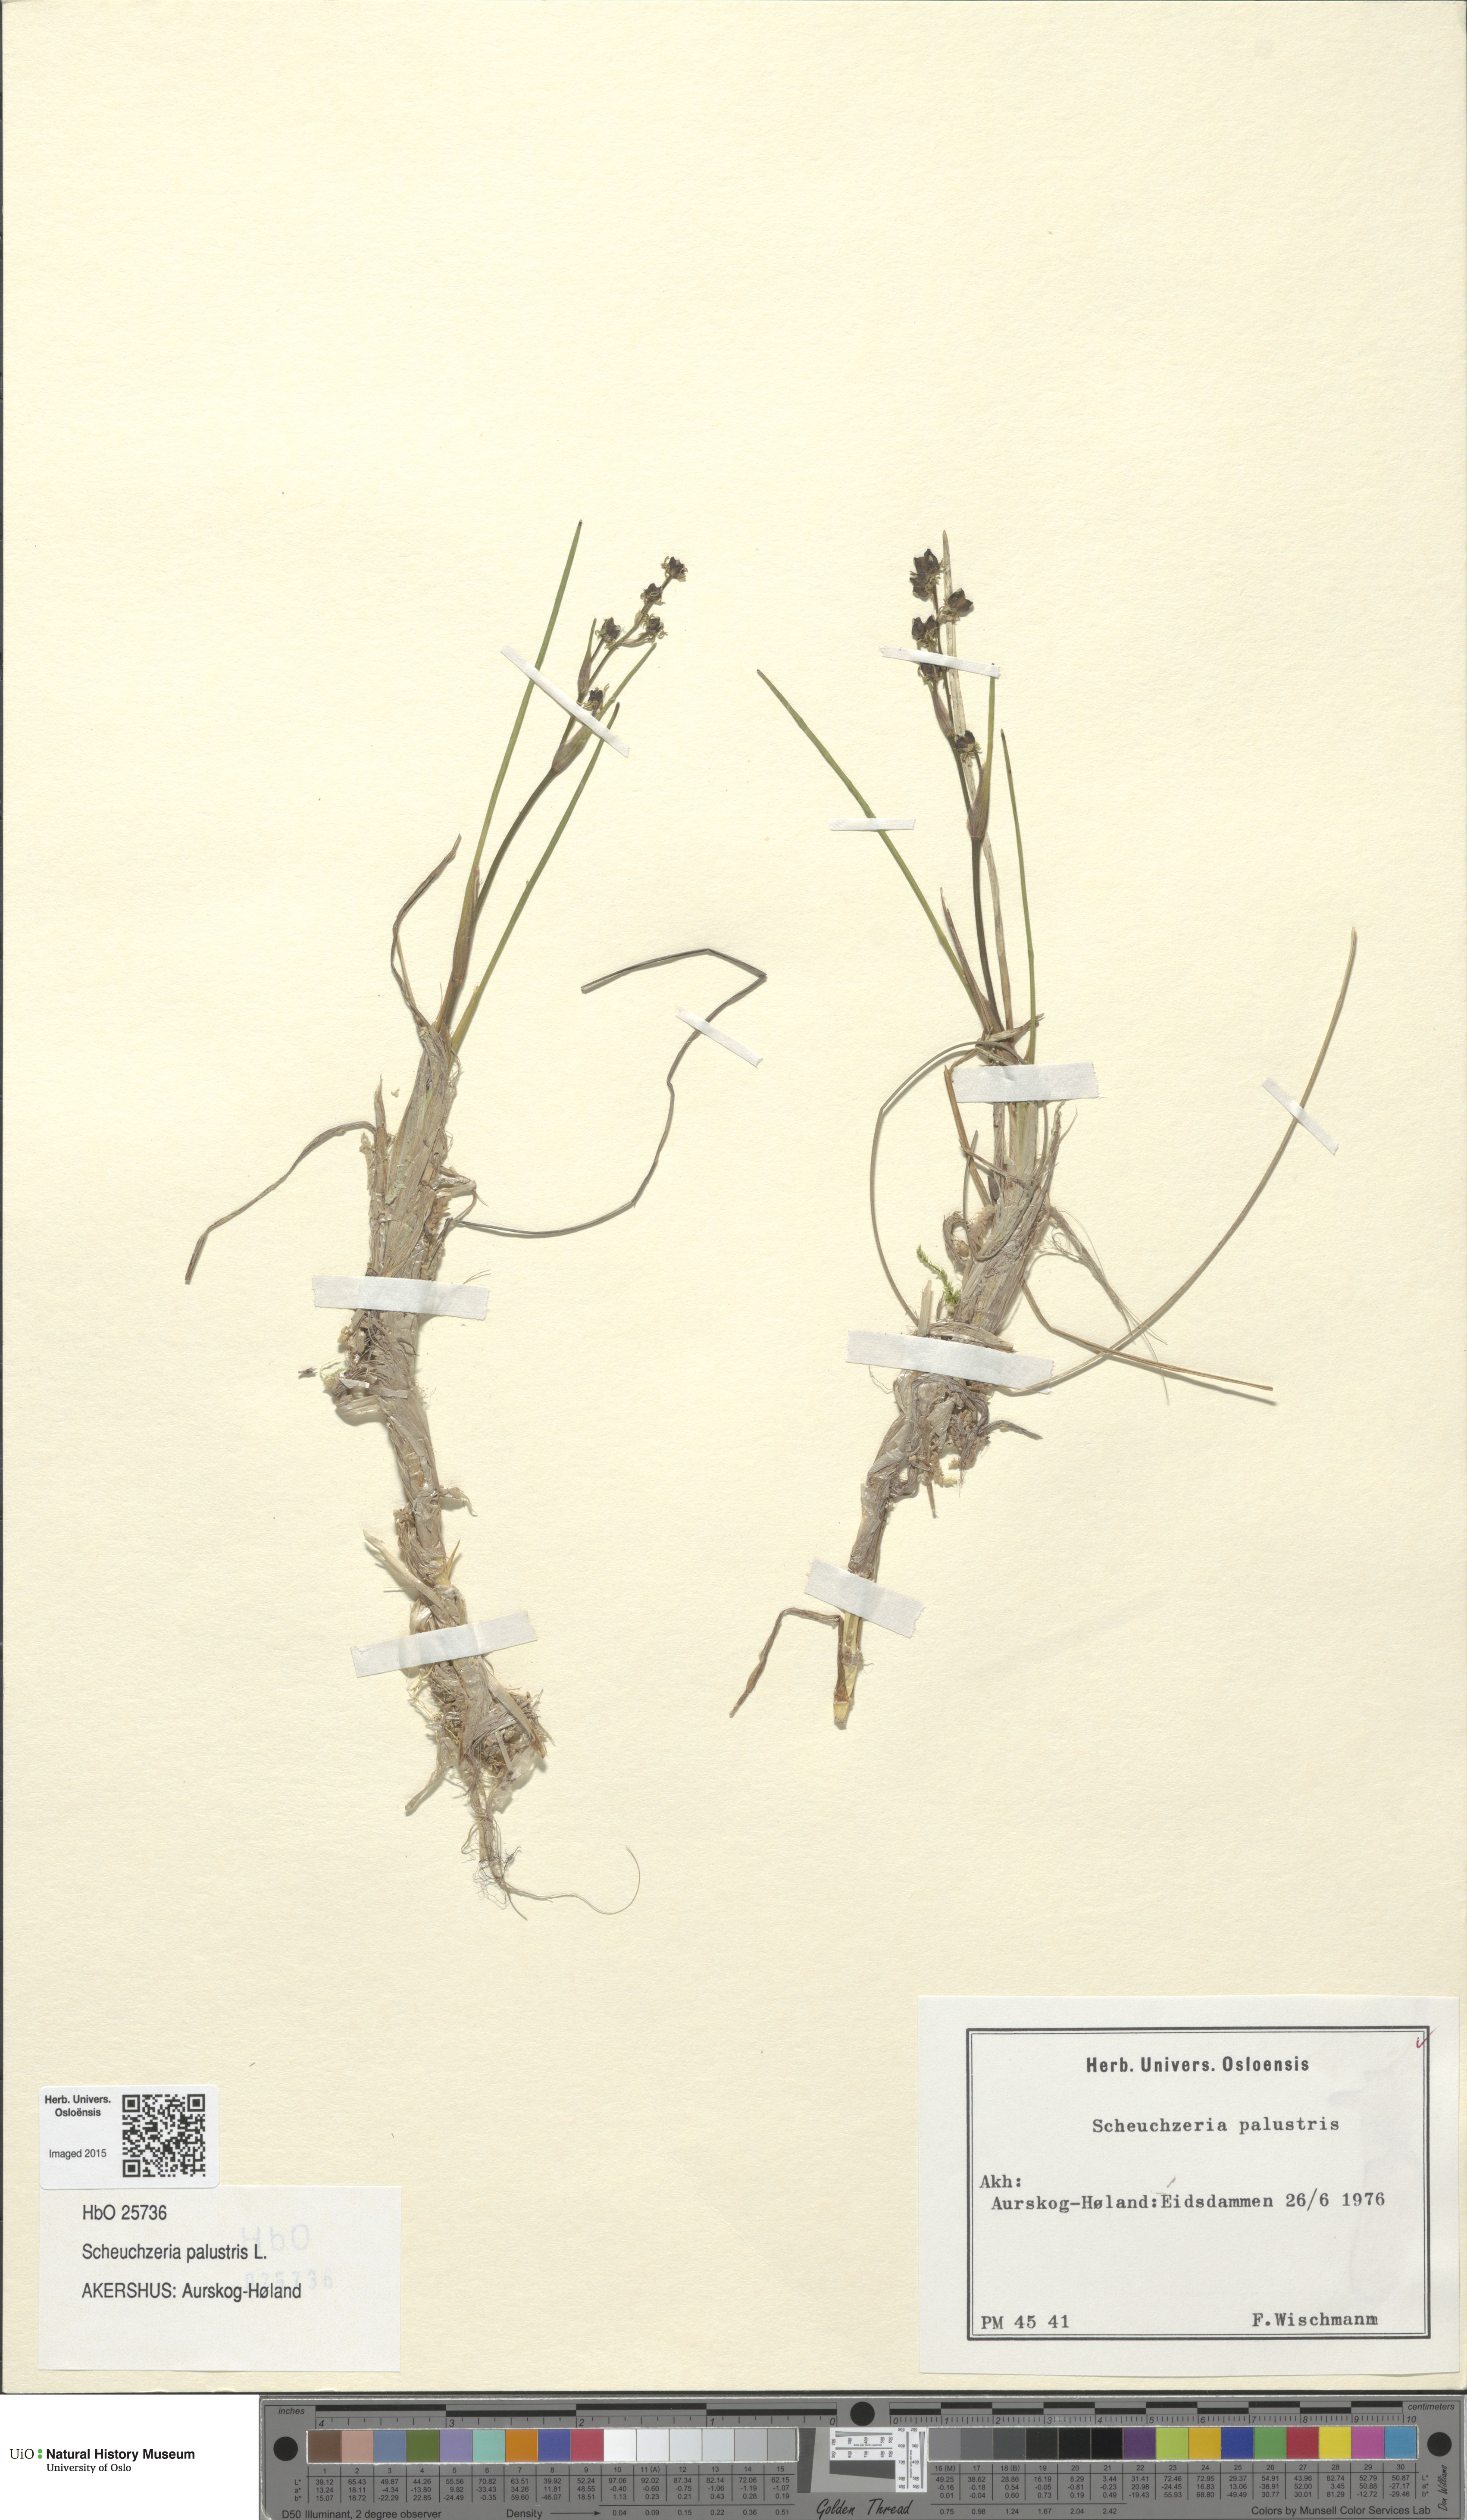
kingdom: Plantae
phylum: Tracheophyta
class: Liliopsida
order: Alismatales
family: Scheuchzeriaceae
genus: Scheuchzeria
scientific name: Scheuchzeria palustris
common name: Rannoch-rush
